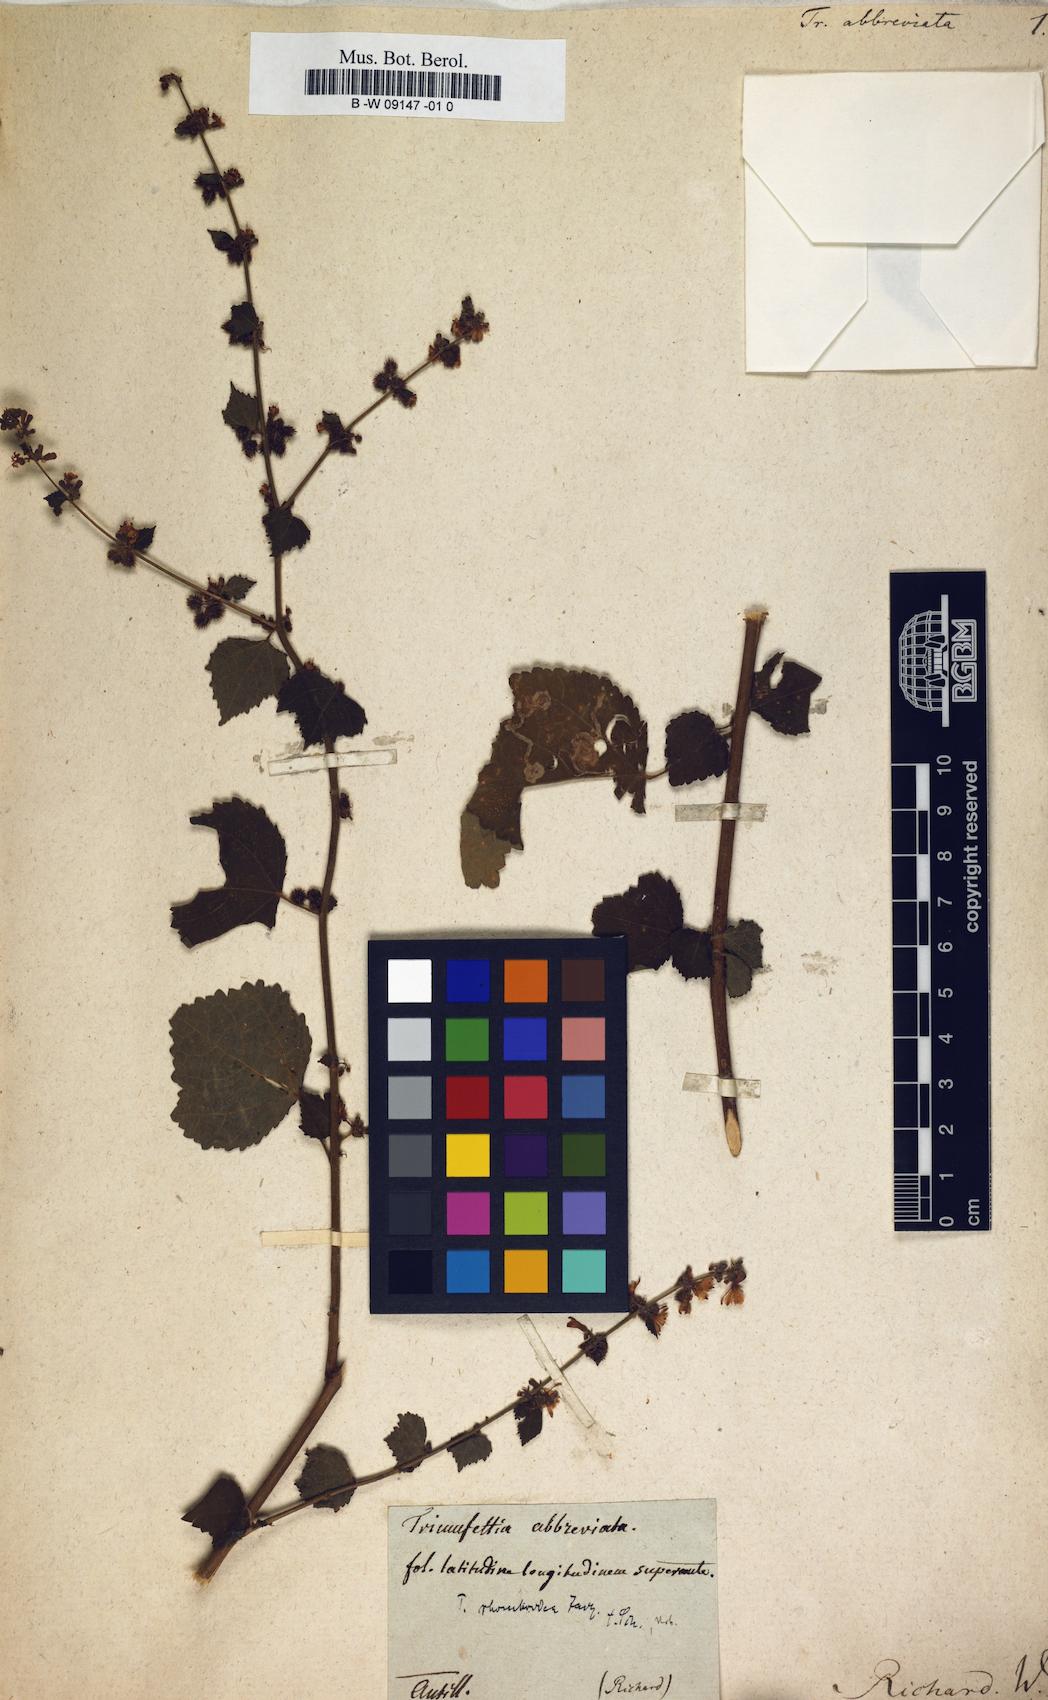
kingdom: Plantae
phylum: Tracheophyta
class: Magnoliopsida
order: Malvales
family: Malvaceae
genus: Triumfetta
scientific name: Triumfetta
